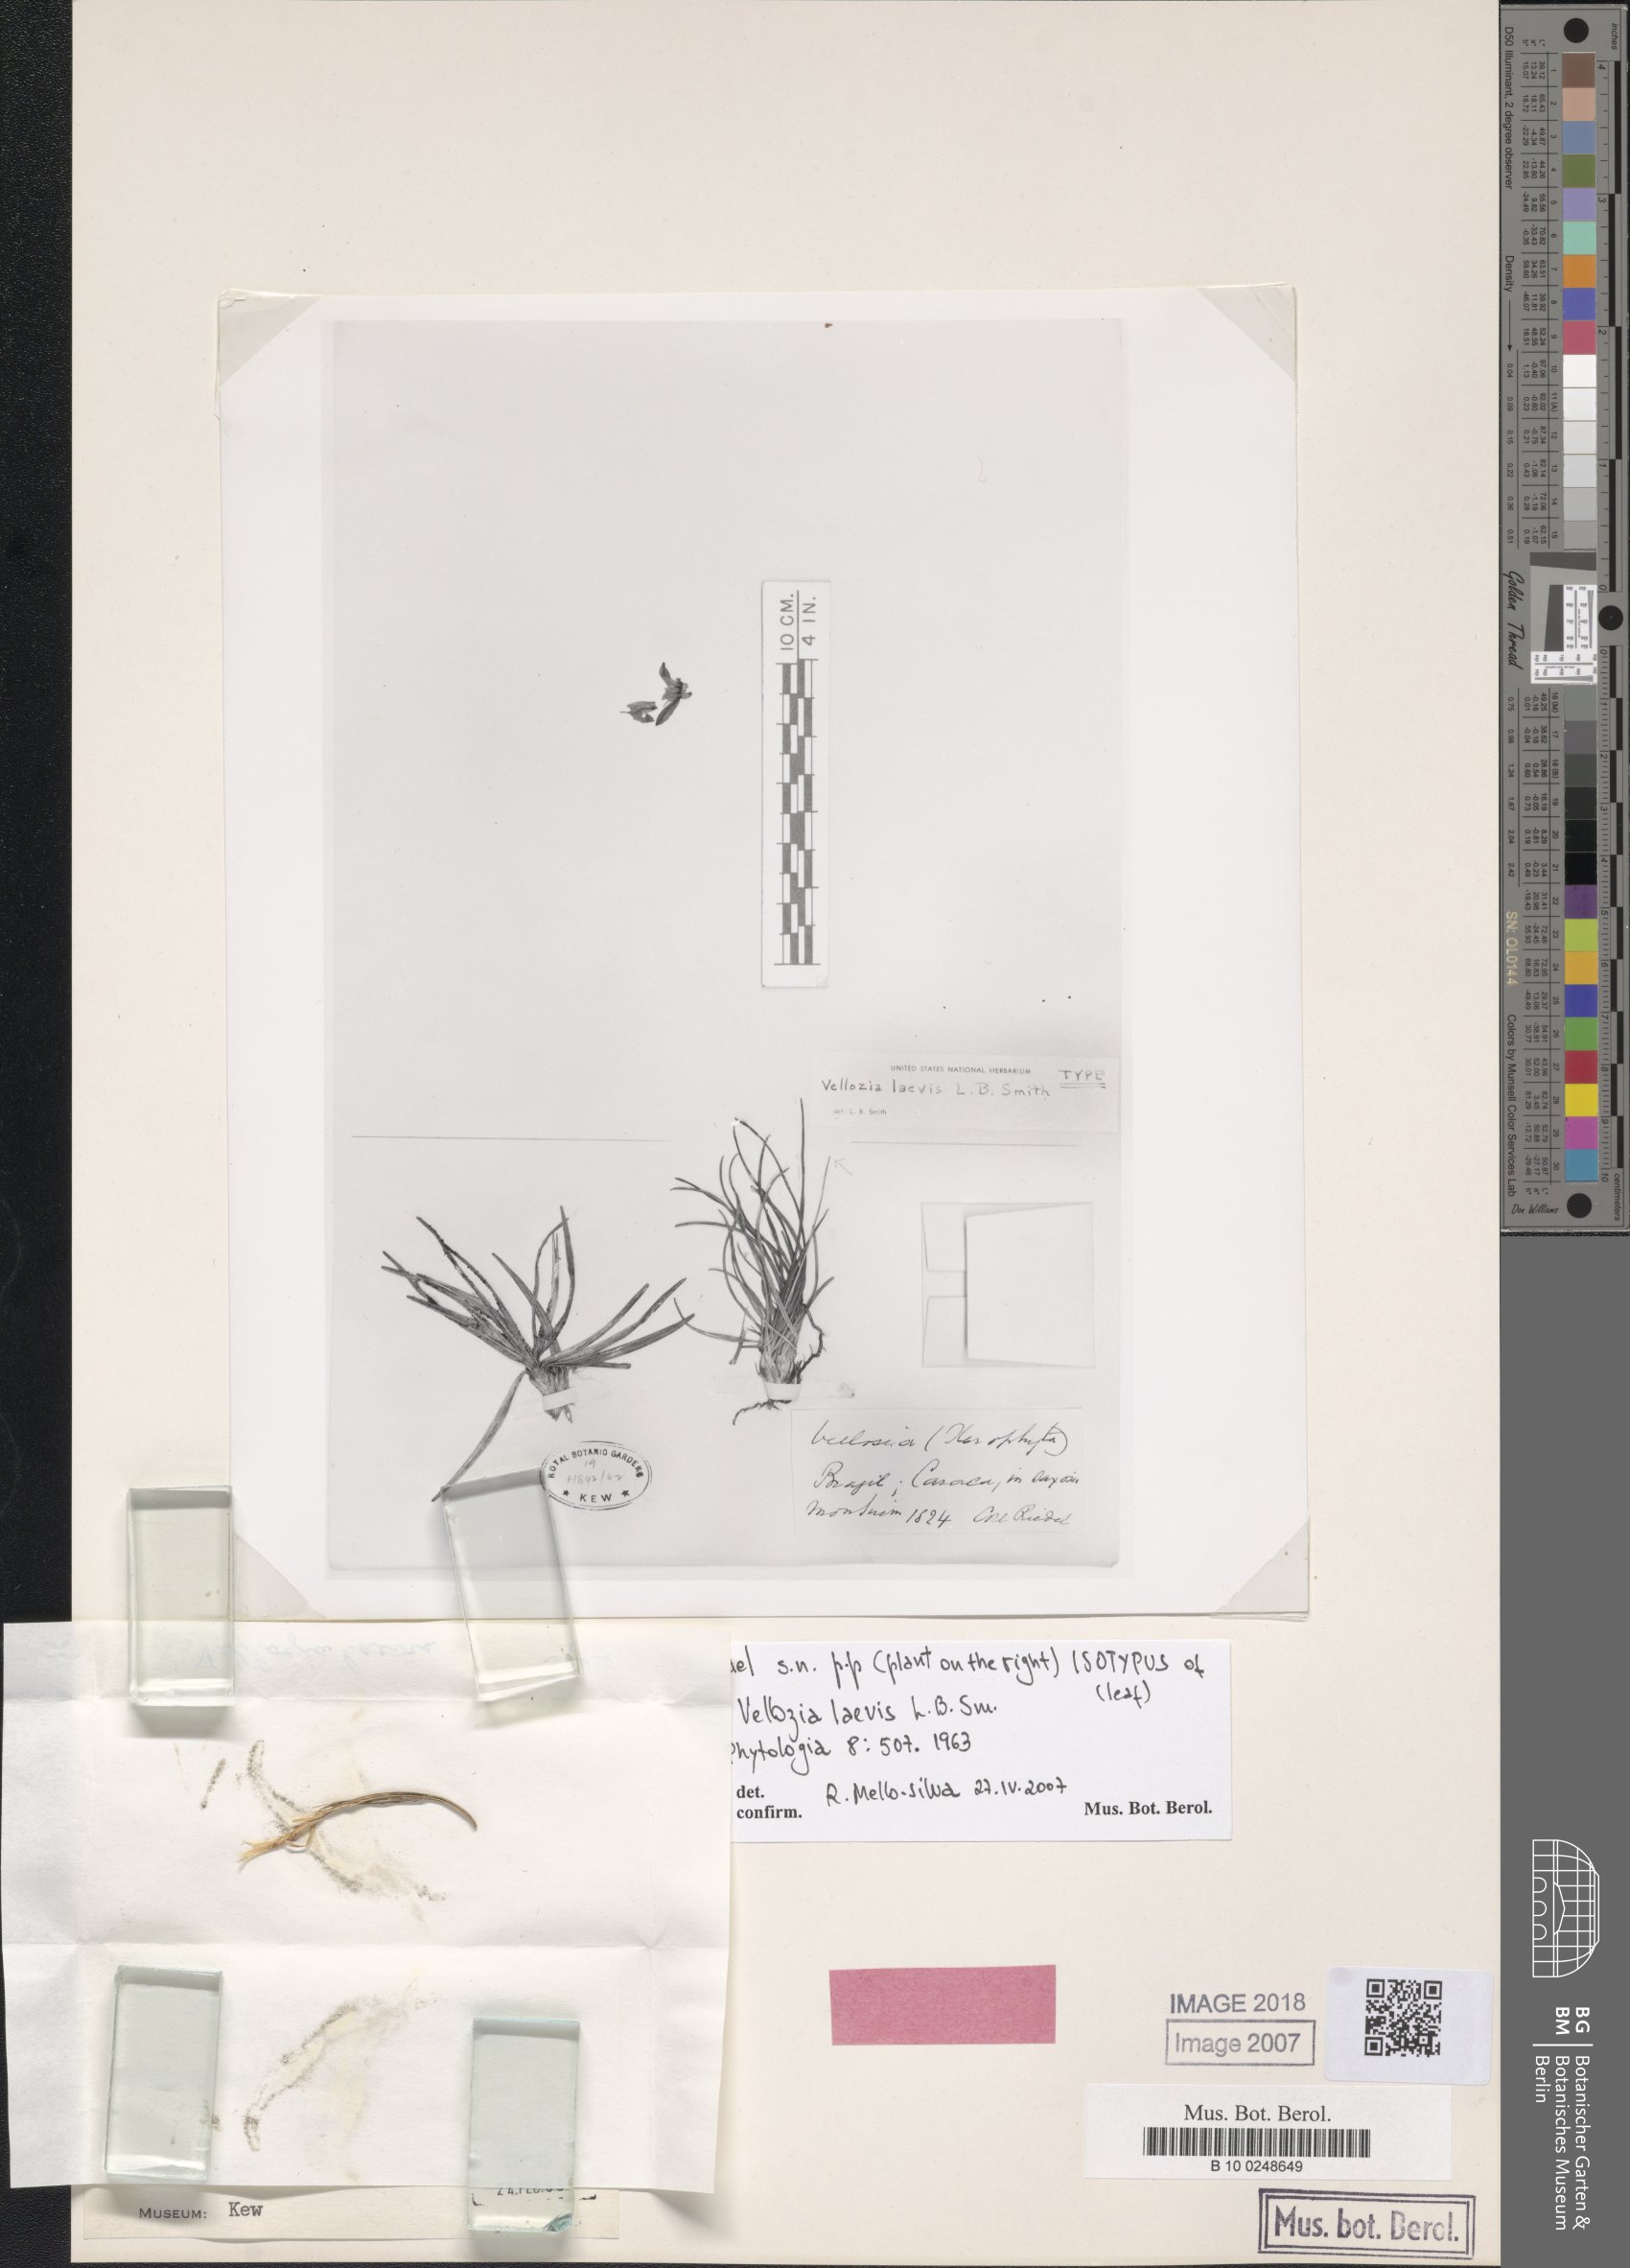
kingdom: Plantae
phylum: Tracheophyta
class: Liliopsida
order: Pandanales
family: Velloziaceae
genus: Vellozia
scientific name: Vellozia laevis
